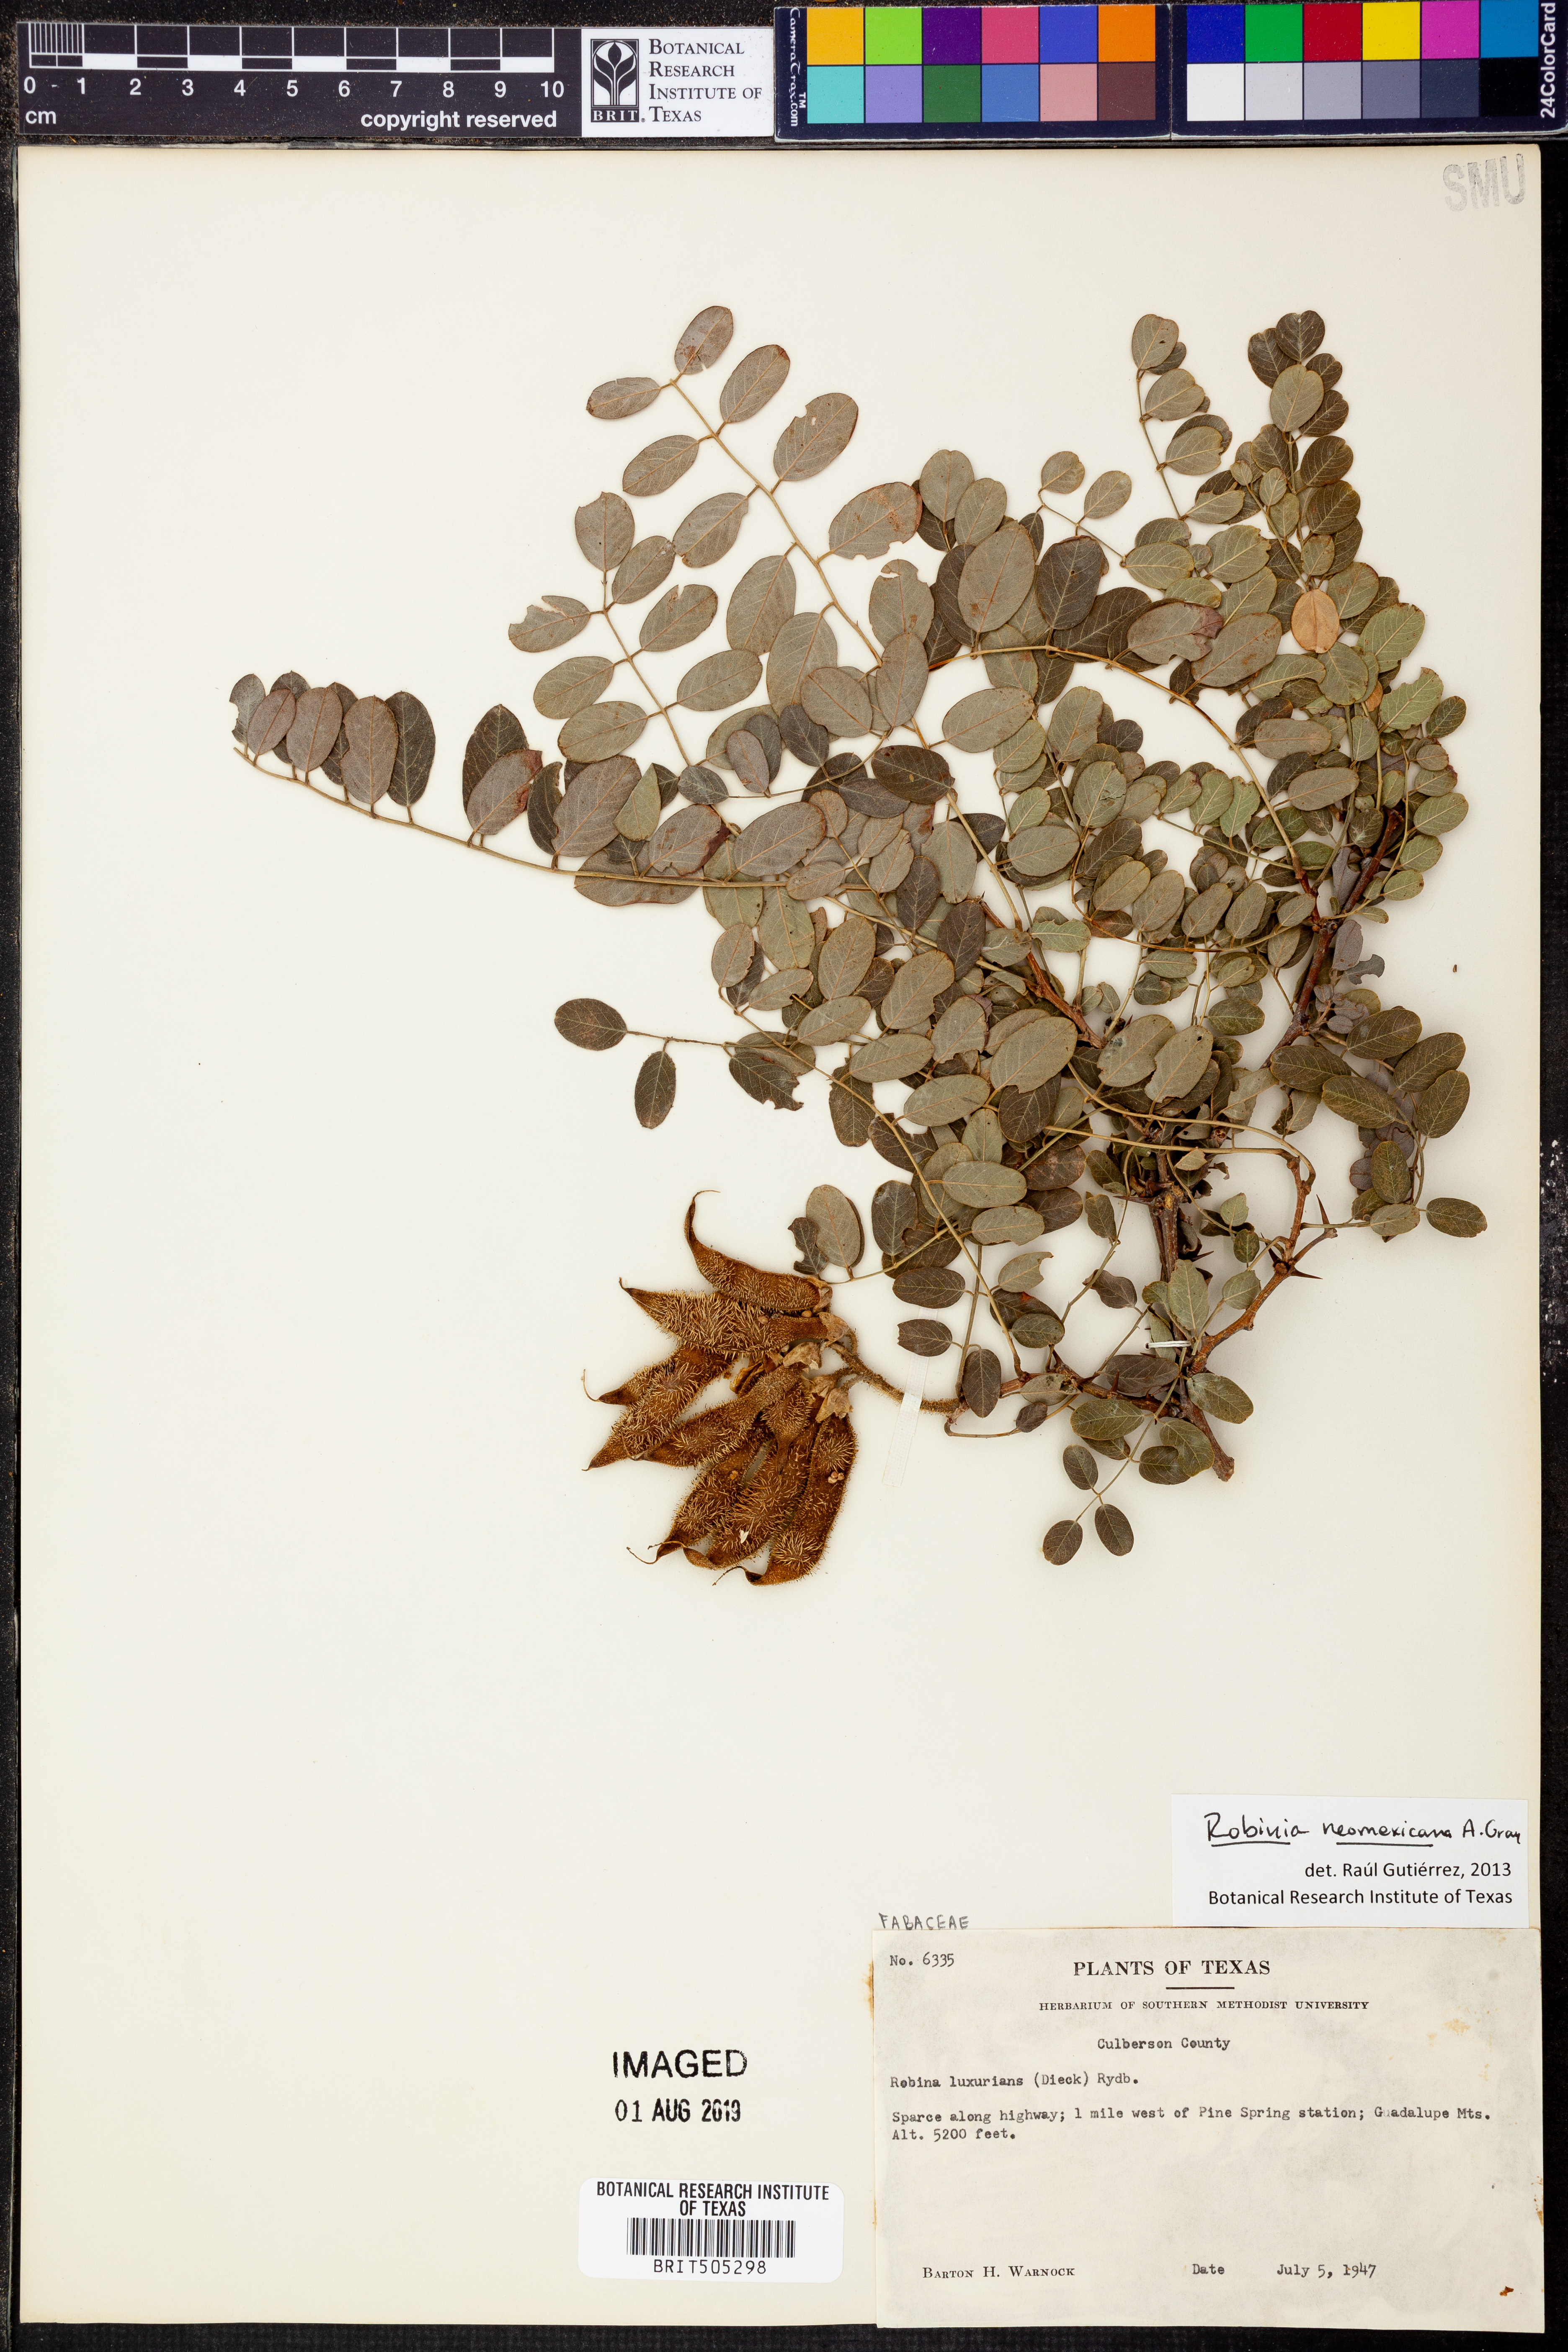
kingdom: Plantae
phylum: Tracheophyta
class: Magnoliopsida
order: Fabales
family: Fabaceae
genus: Robinia
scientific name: Robinia neomexicana
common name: New mexico locust
